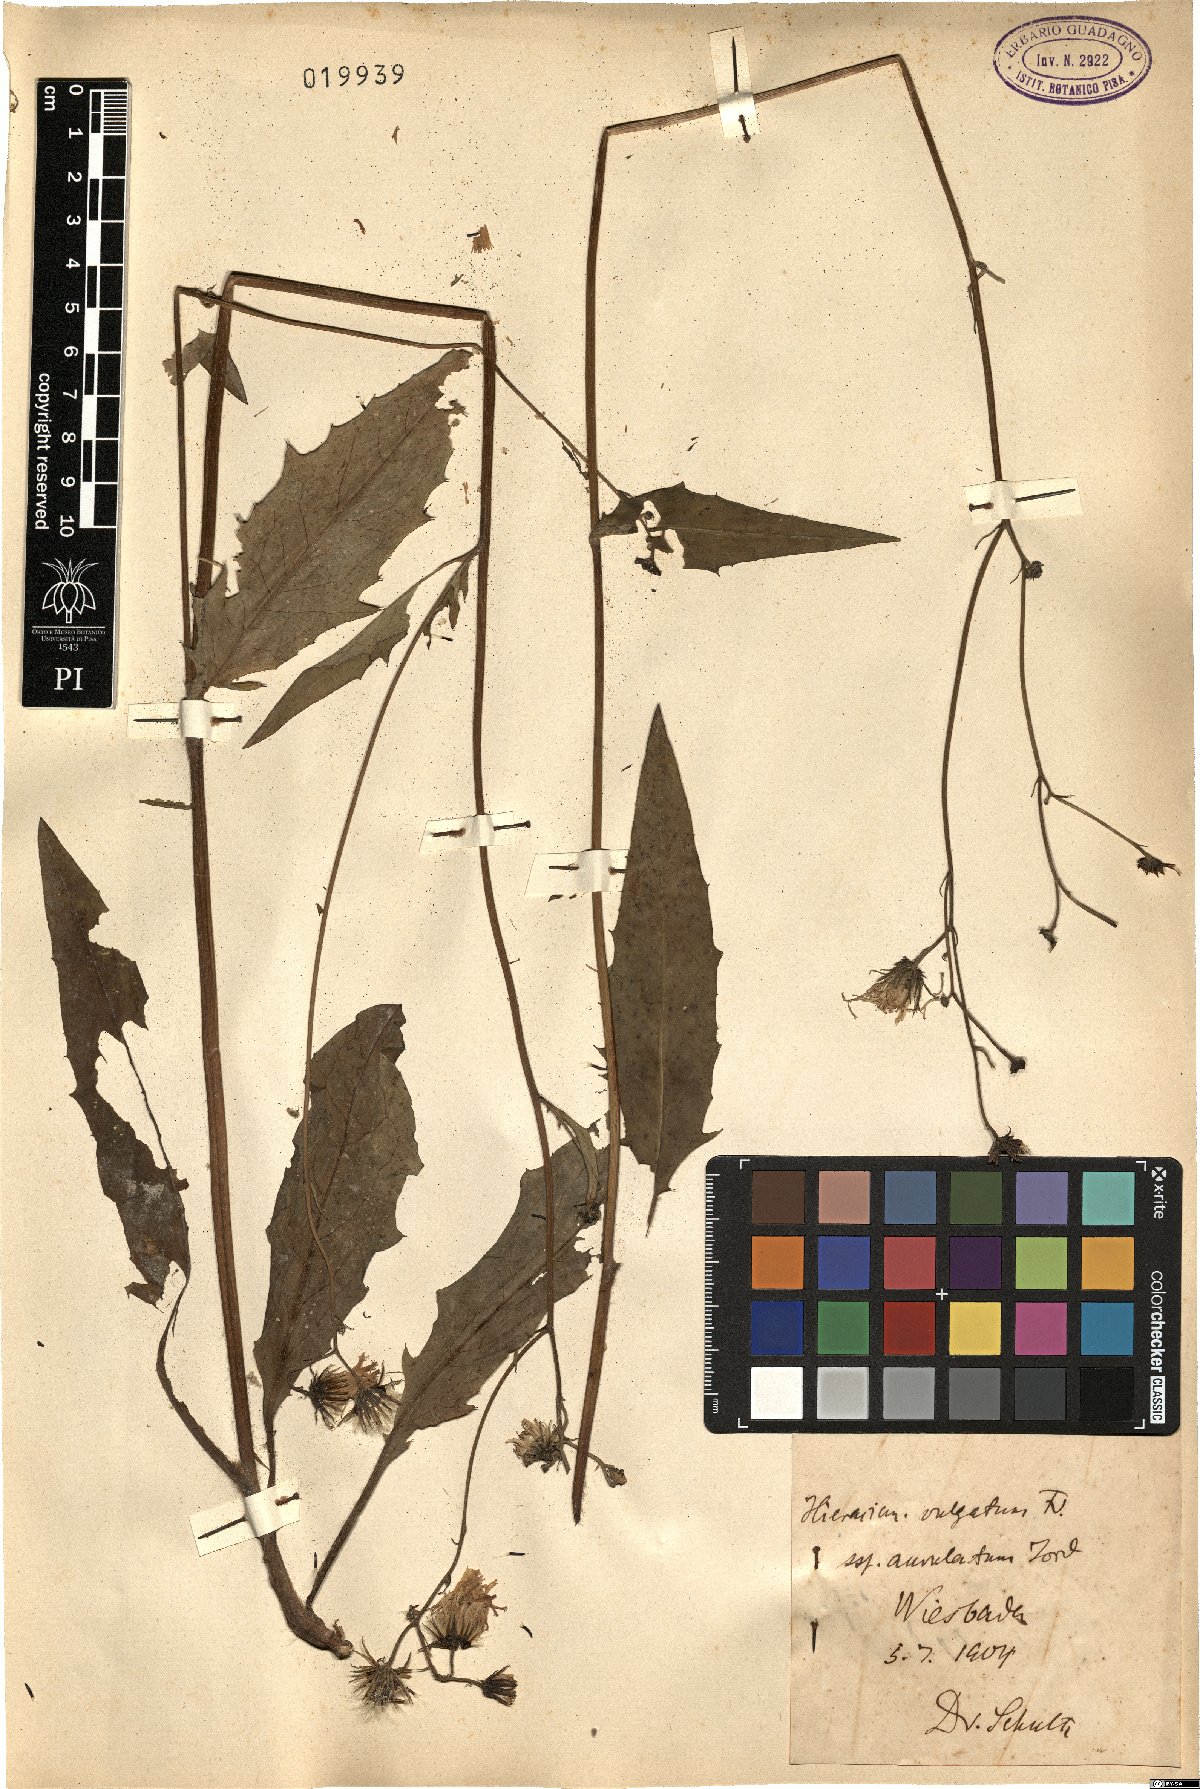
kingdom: Plantae
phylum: Tracheophyta
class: Magnoliopsida
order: Asterales
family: Asteraceae
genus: Hieracium
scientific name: Hieracium lachenalii
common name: Common hawkweed
